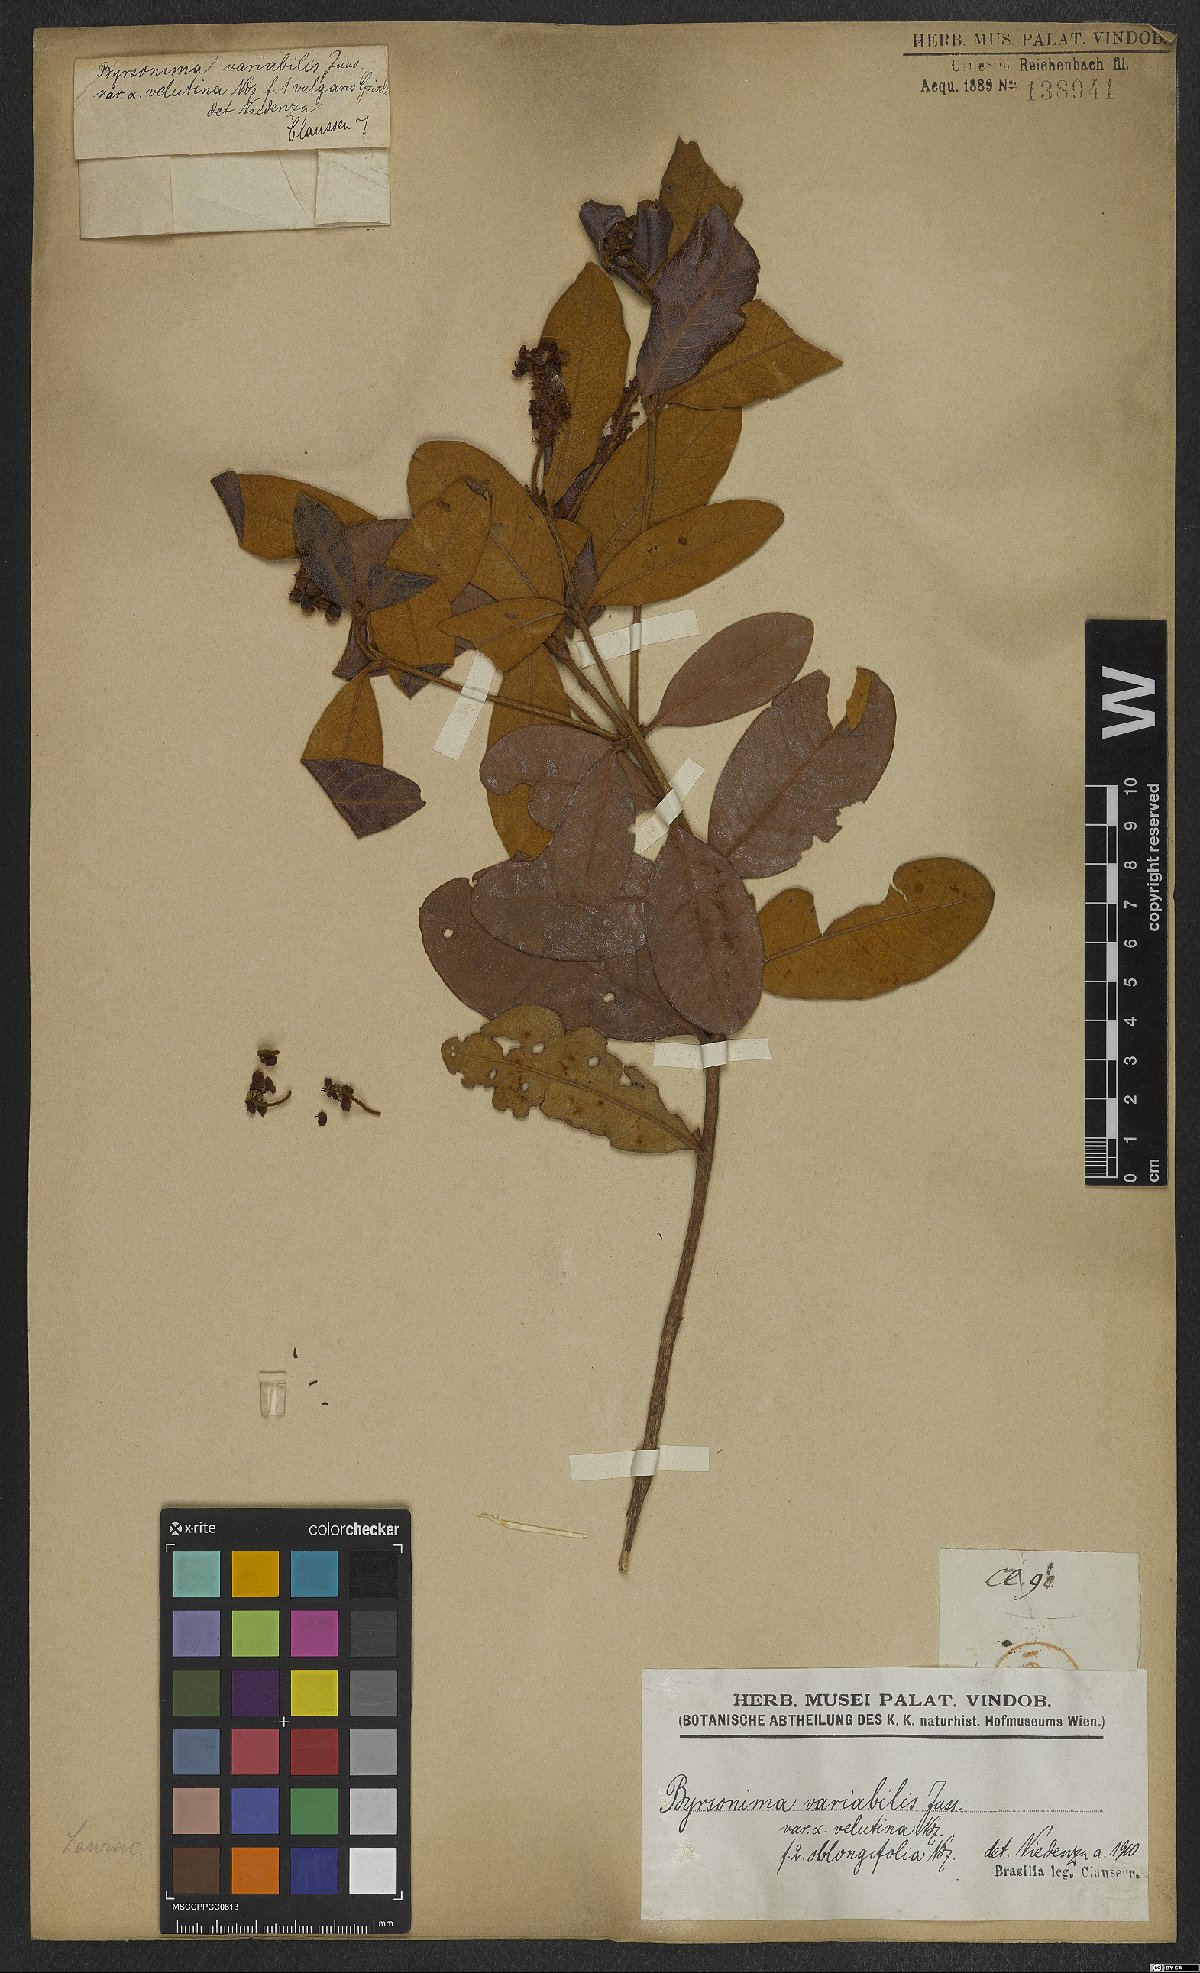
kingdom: Plantae
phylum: Tracheophyta
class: Magnoliopsida
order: Malpighiales
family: Malpighiaceae
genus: Byrsonima
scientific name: Byrsonima variabilis
